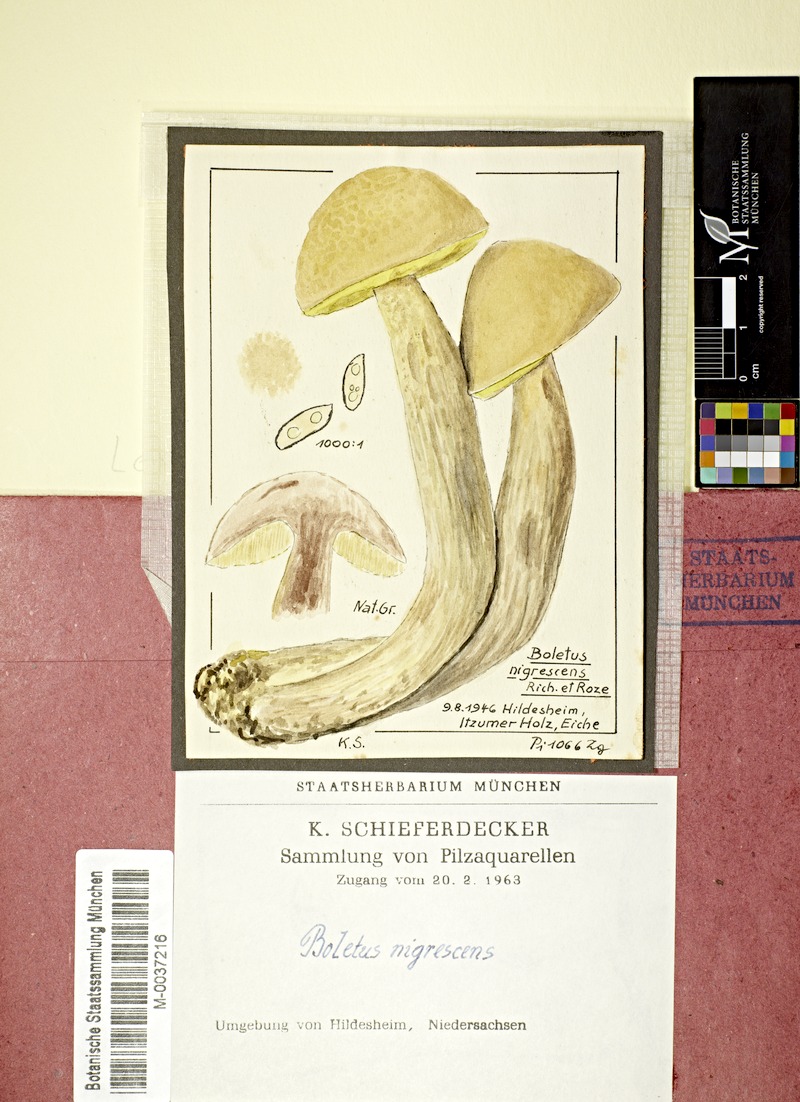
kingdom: Fungi
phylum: Basidiomycota
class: Agaricomycetes
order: Boletales
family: Boletaceae
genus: Leccinellum
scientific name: Leccinellum crocipodium
